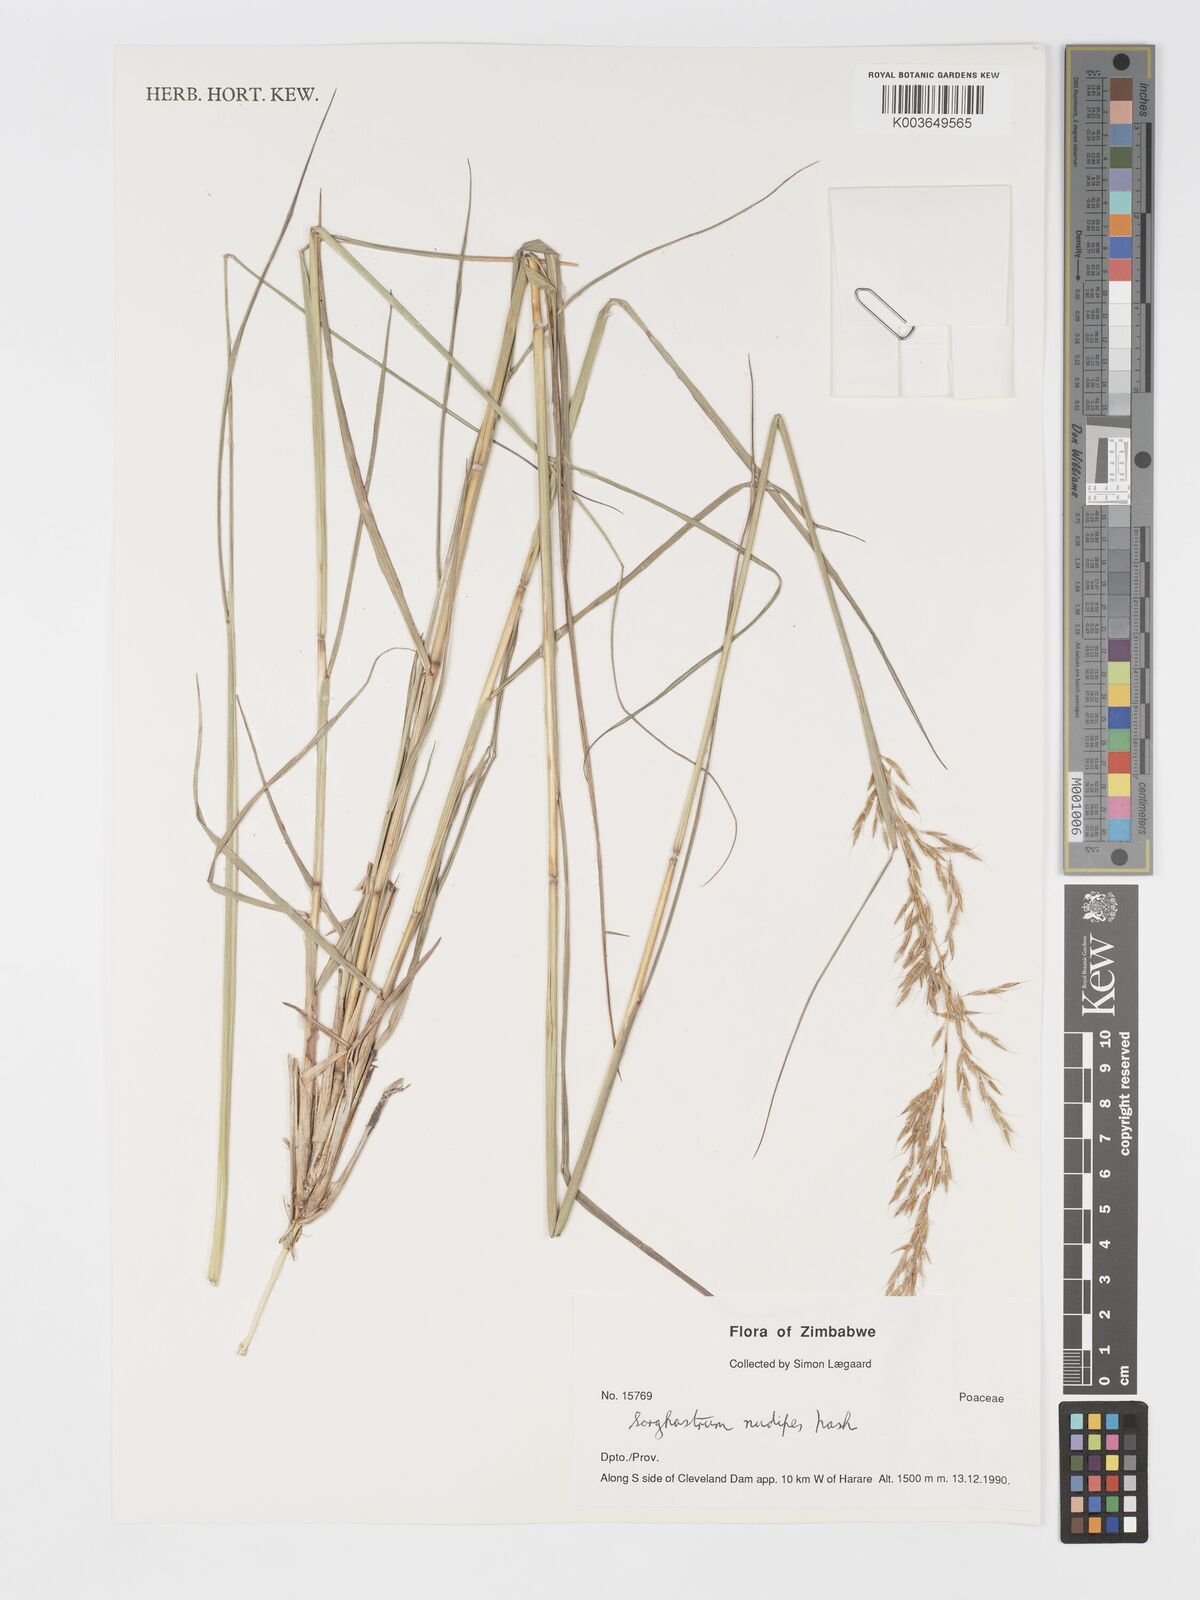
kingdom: Plantae
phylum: Tracheophyta
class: Liliopsida
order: Poales
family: Poaceae
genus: Sorghastrum
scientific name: Sorghastrum nudipes
